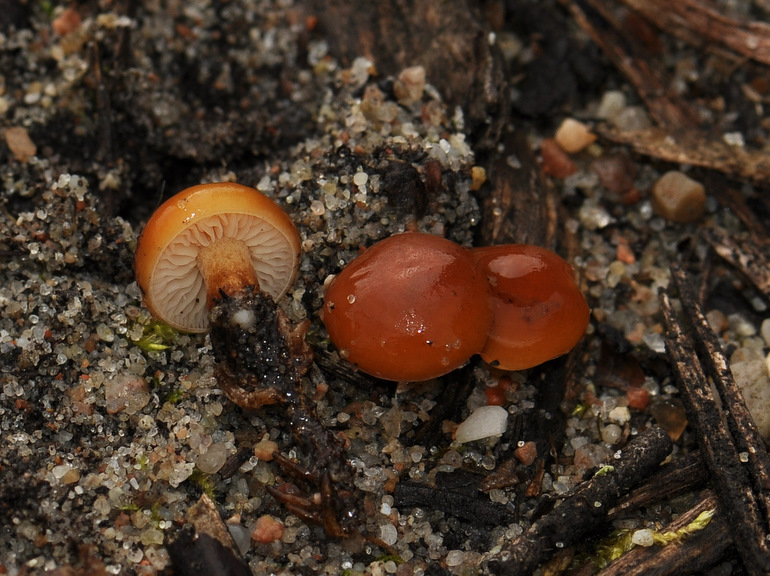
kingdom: Fungi
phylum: Basidiomycota
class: Agaricomycetes
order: Agaricales
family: Physalacriaceae
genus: Flammulina
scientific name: Flammulina velutipes
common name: gul fløjlsfod
